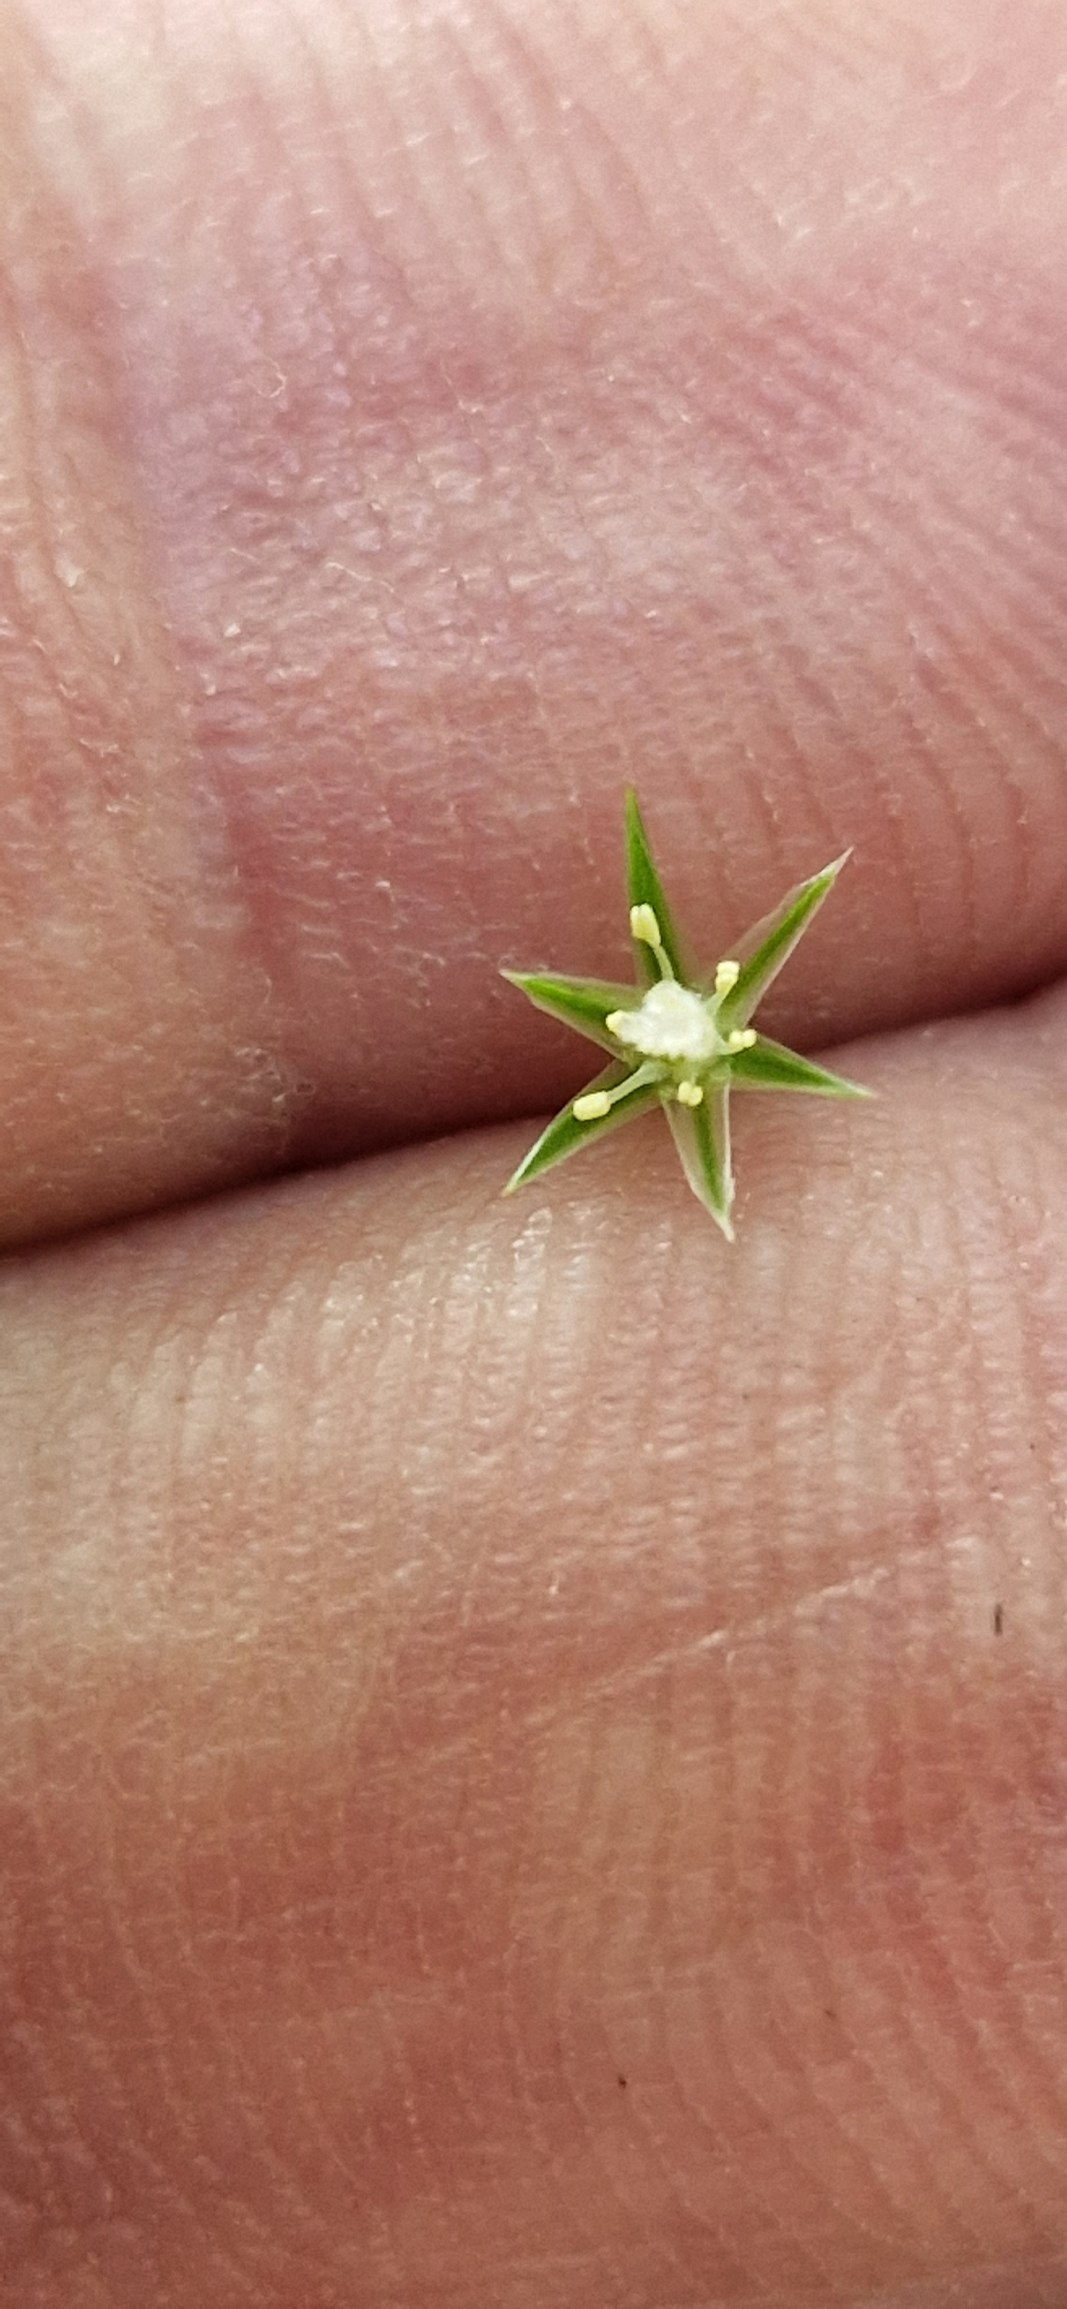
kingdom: Plantae
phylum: Tracheophyta
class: Liliopsida
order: Poales
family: Juncaceae
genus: Juncus
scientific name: Juncus tenuis
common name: Tue-siv
